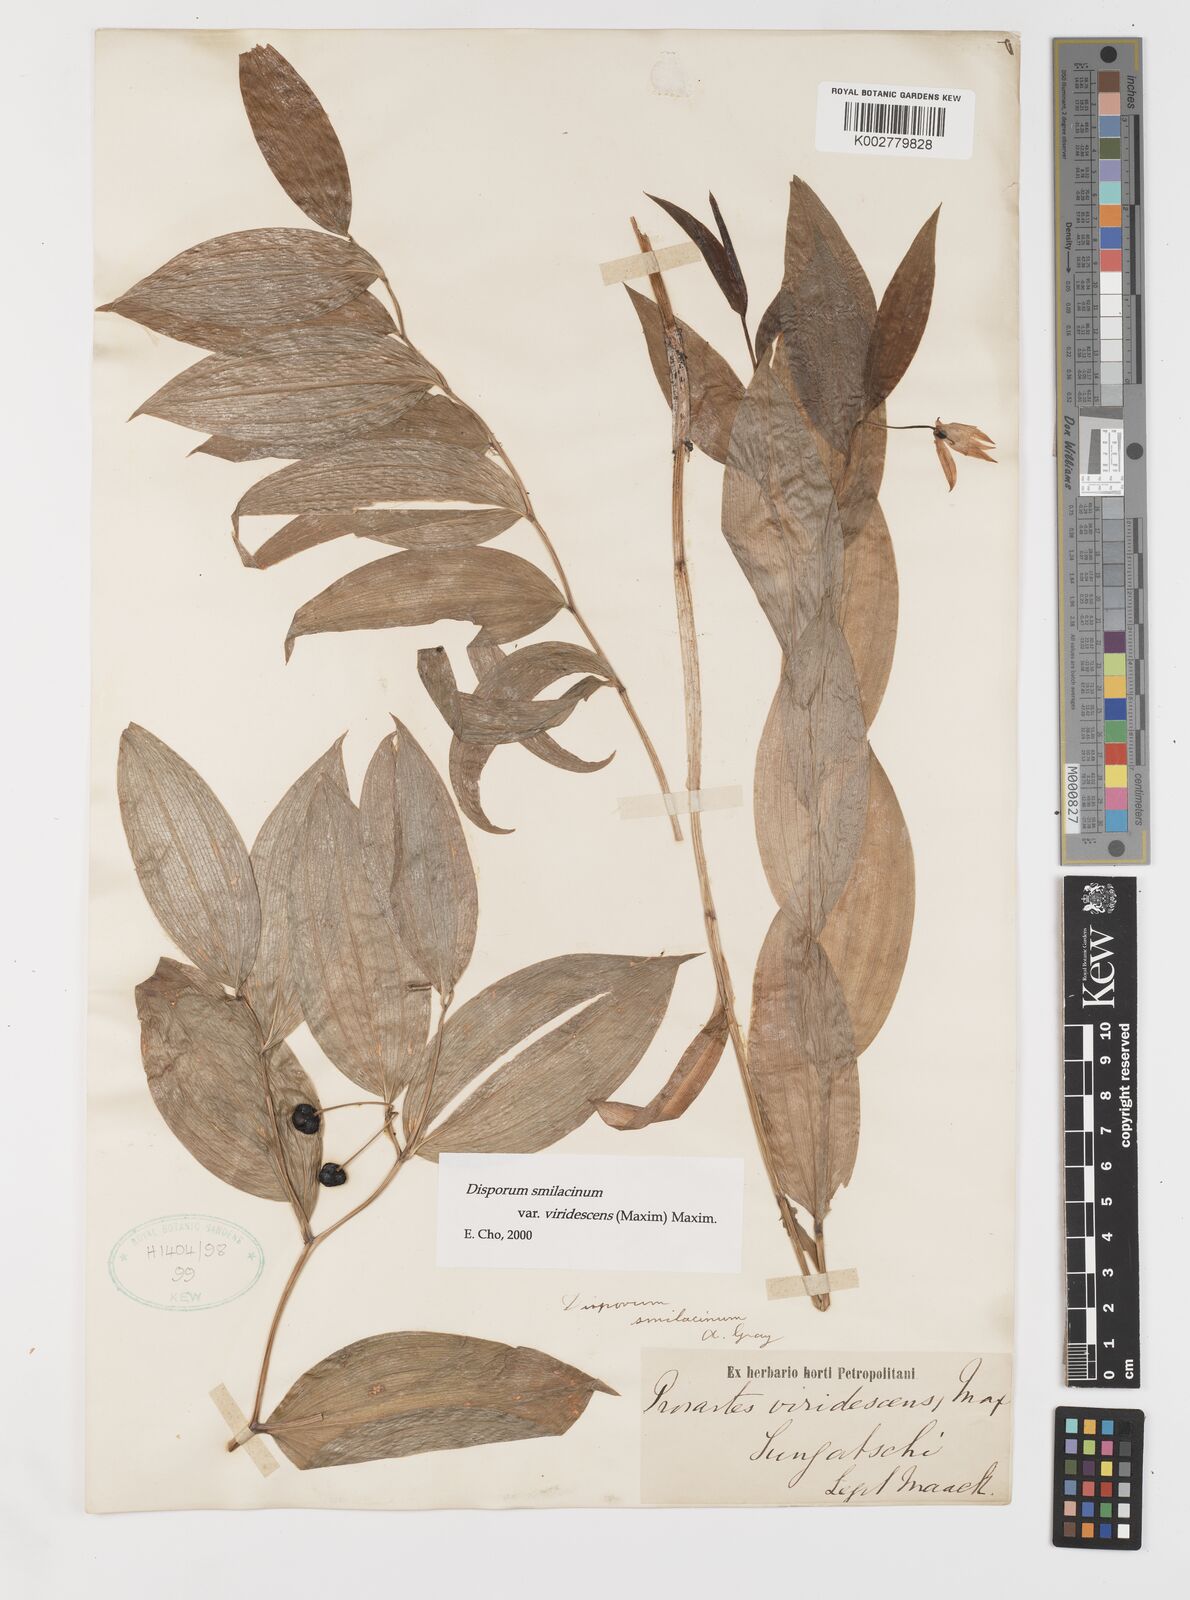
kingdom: Plantae
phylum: Tracheophyta
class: Liliopsida
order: Liliales
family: Colchicaceae
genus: Disporum
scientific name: Disporum smilacinum
